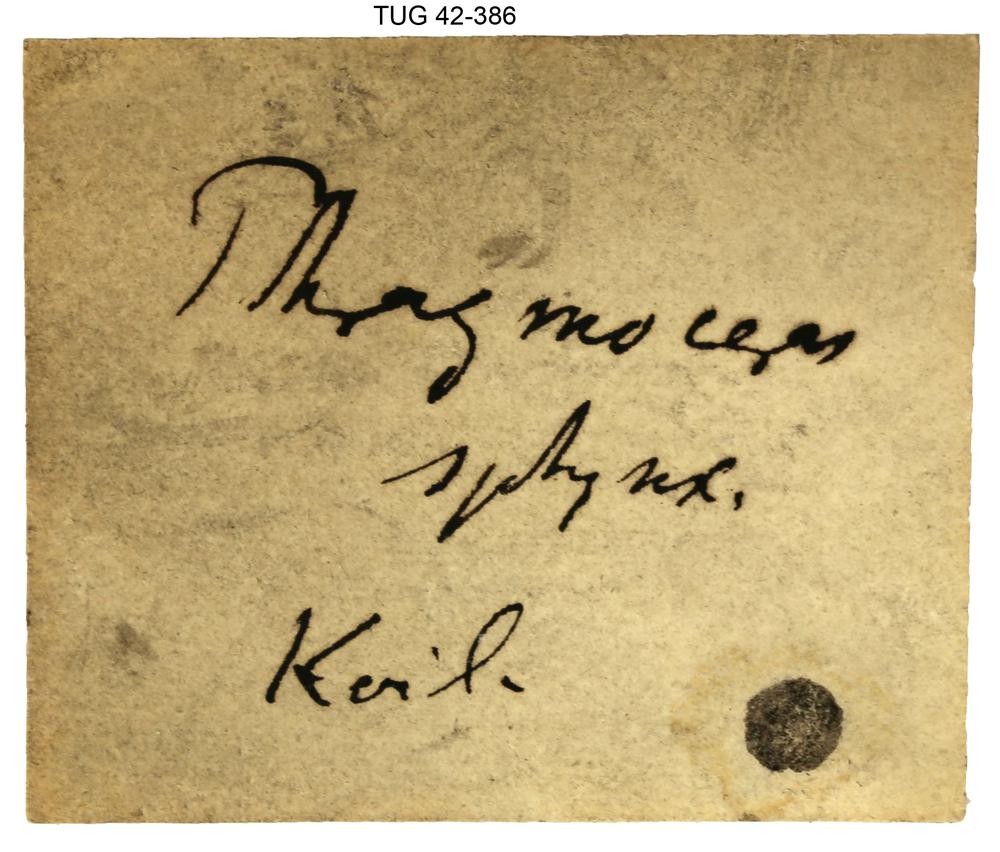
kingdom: Animalia
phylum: Mollusca
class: Cephalopoda
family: Protophragmoceratidae
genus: Protophragmoceras
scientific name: Protophragmoceras Phragmoceras sphynx
